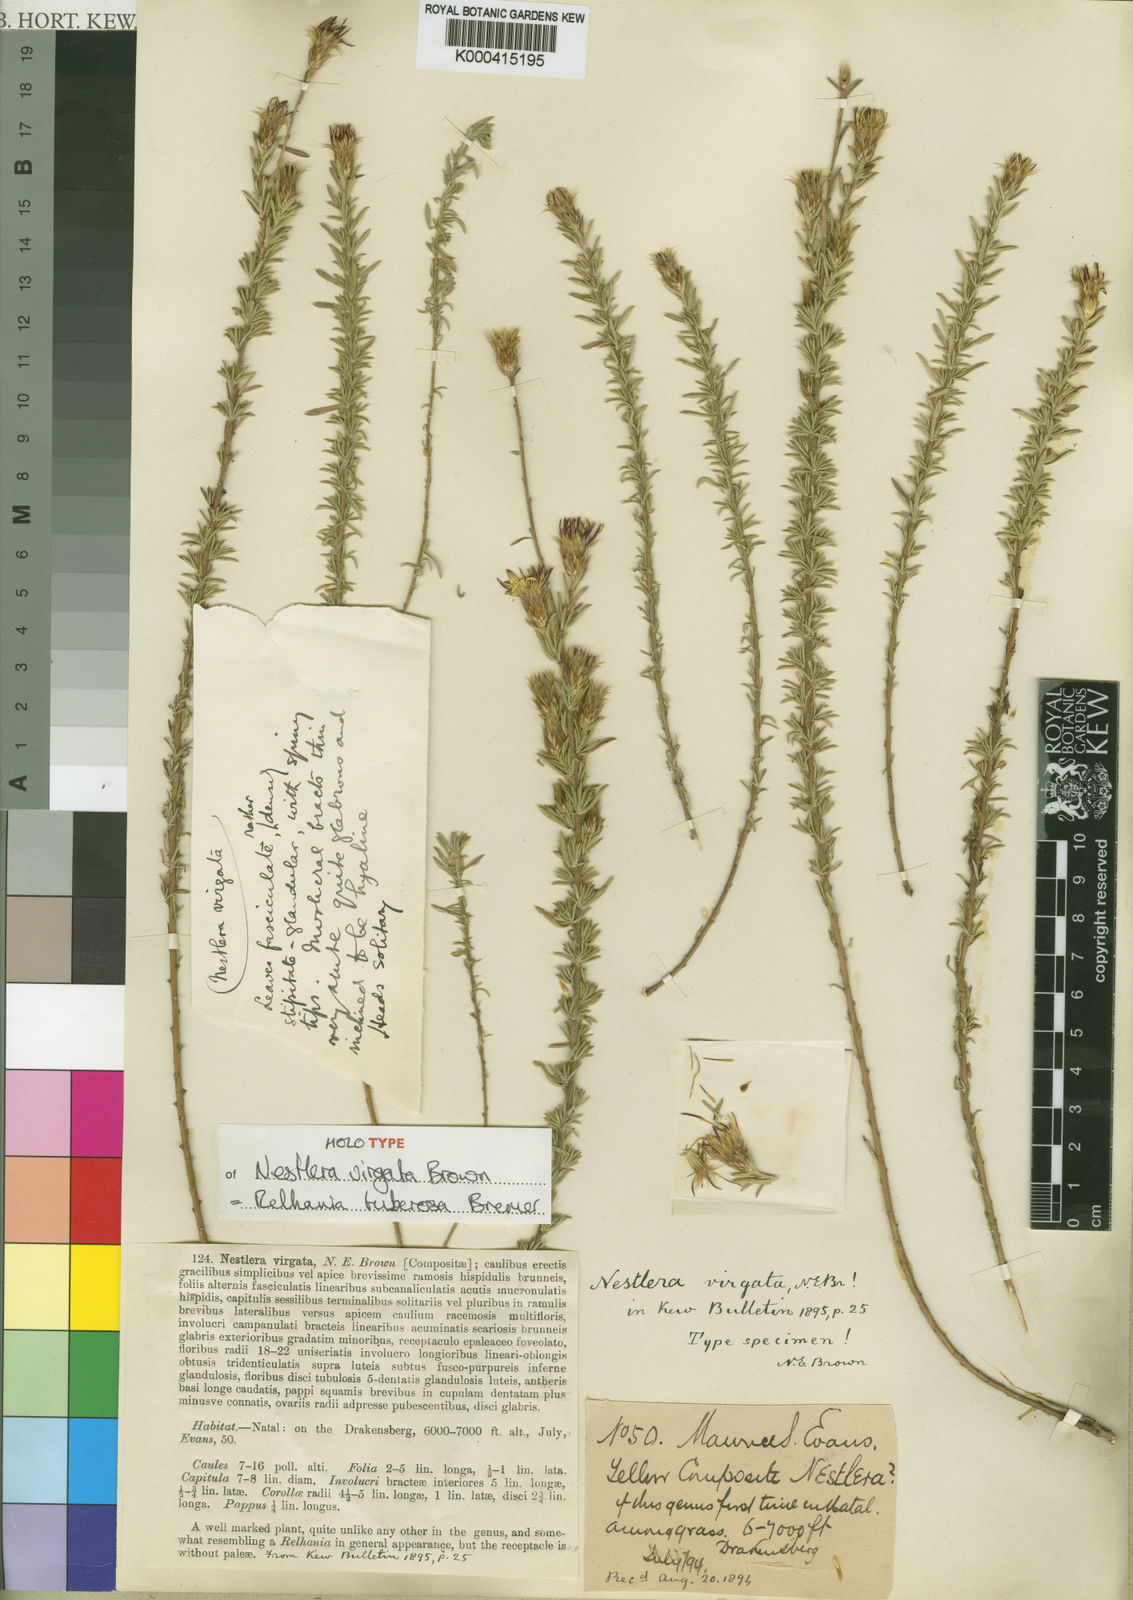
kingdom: Plantae
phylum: Tracheophyta
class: Magnoliopsida
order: Asterales
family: Asteraceae
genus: Oedera
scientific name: Oedera virgata
